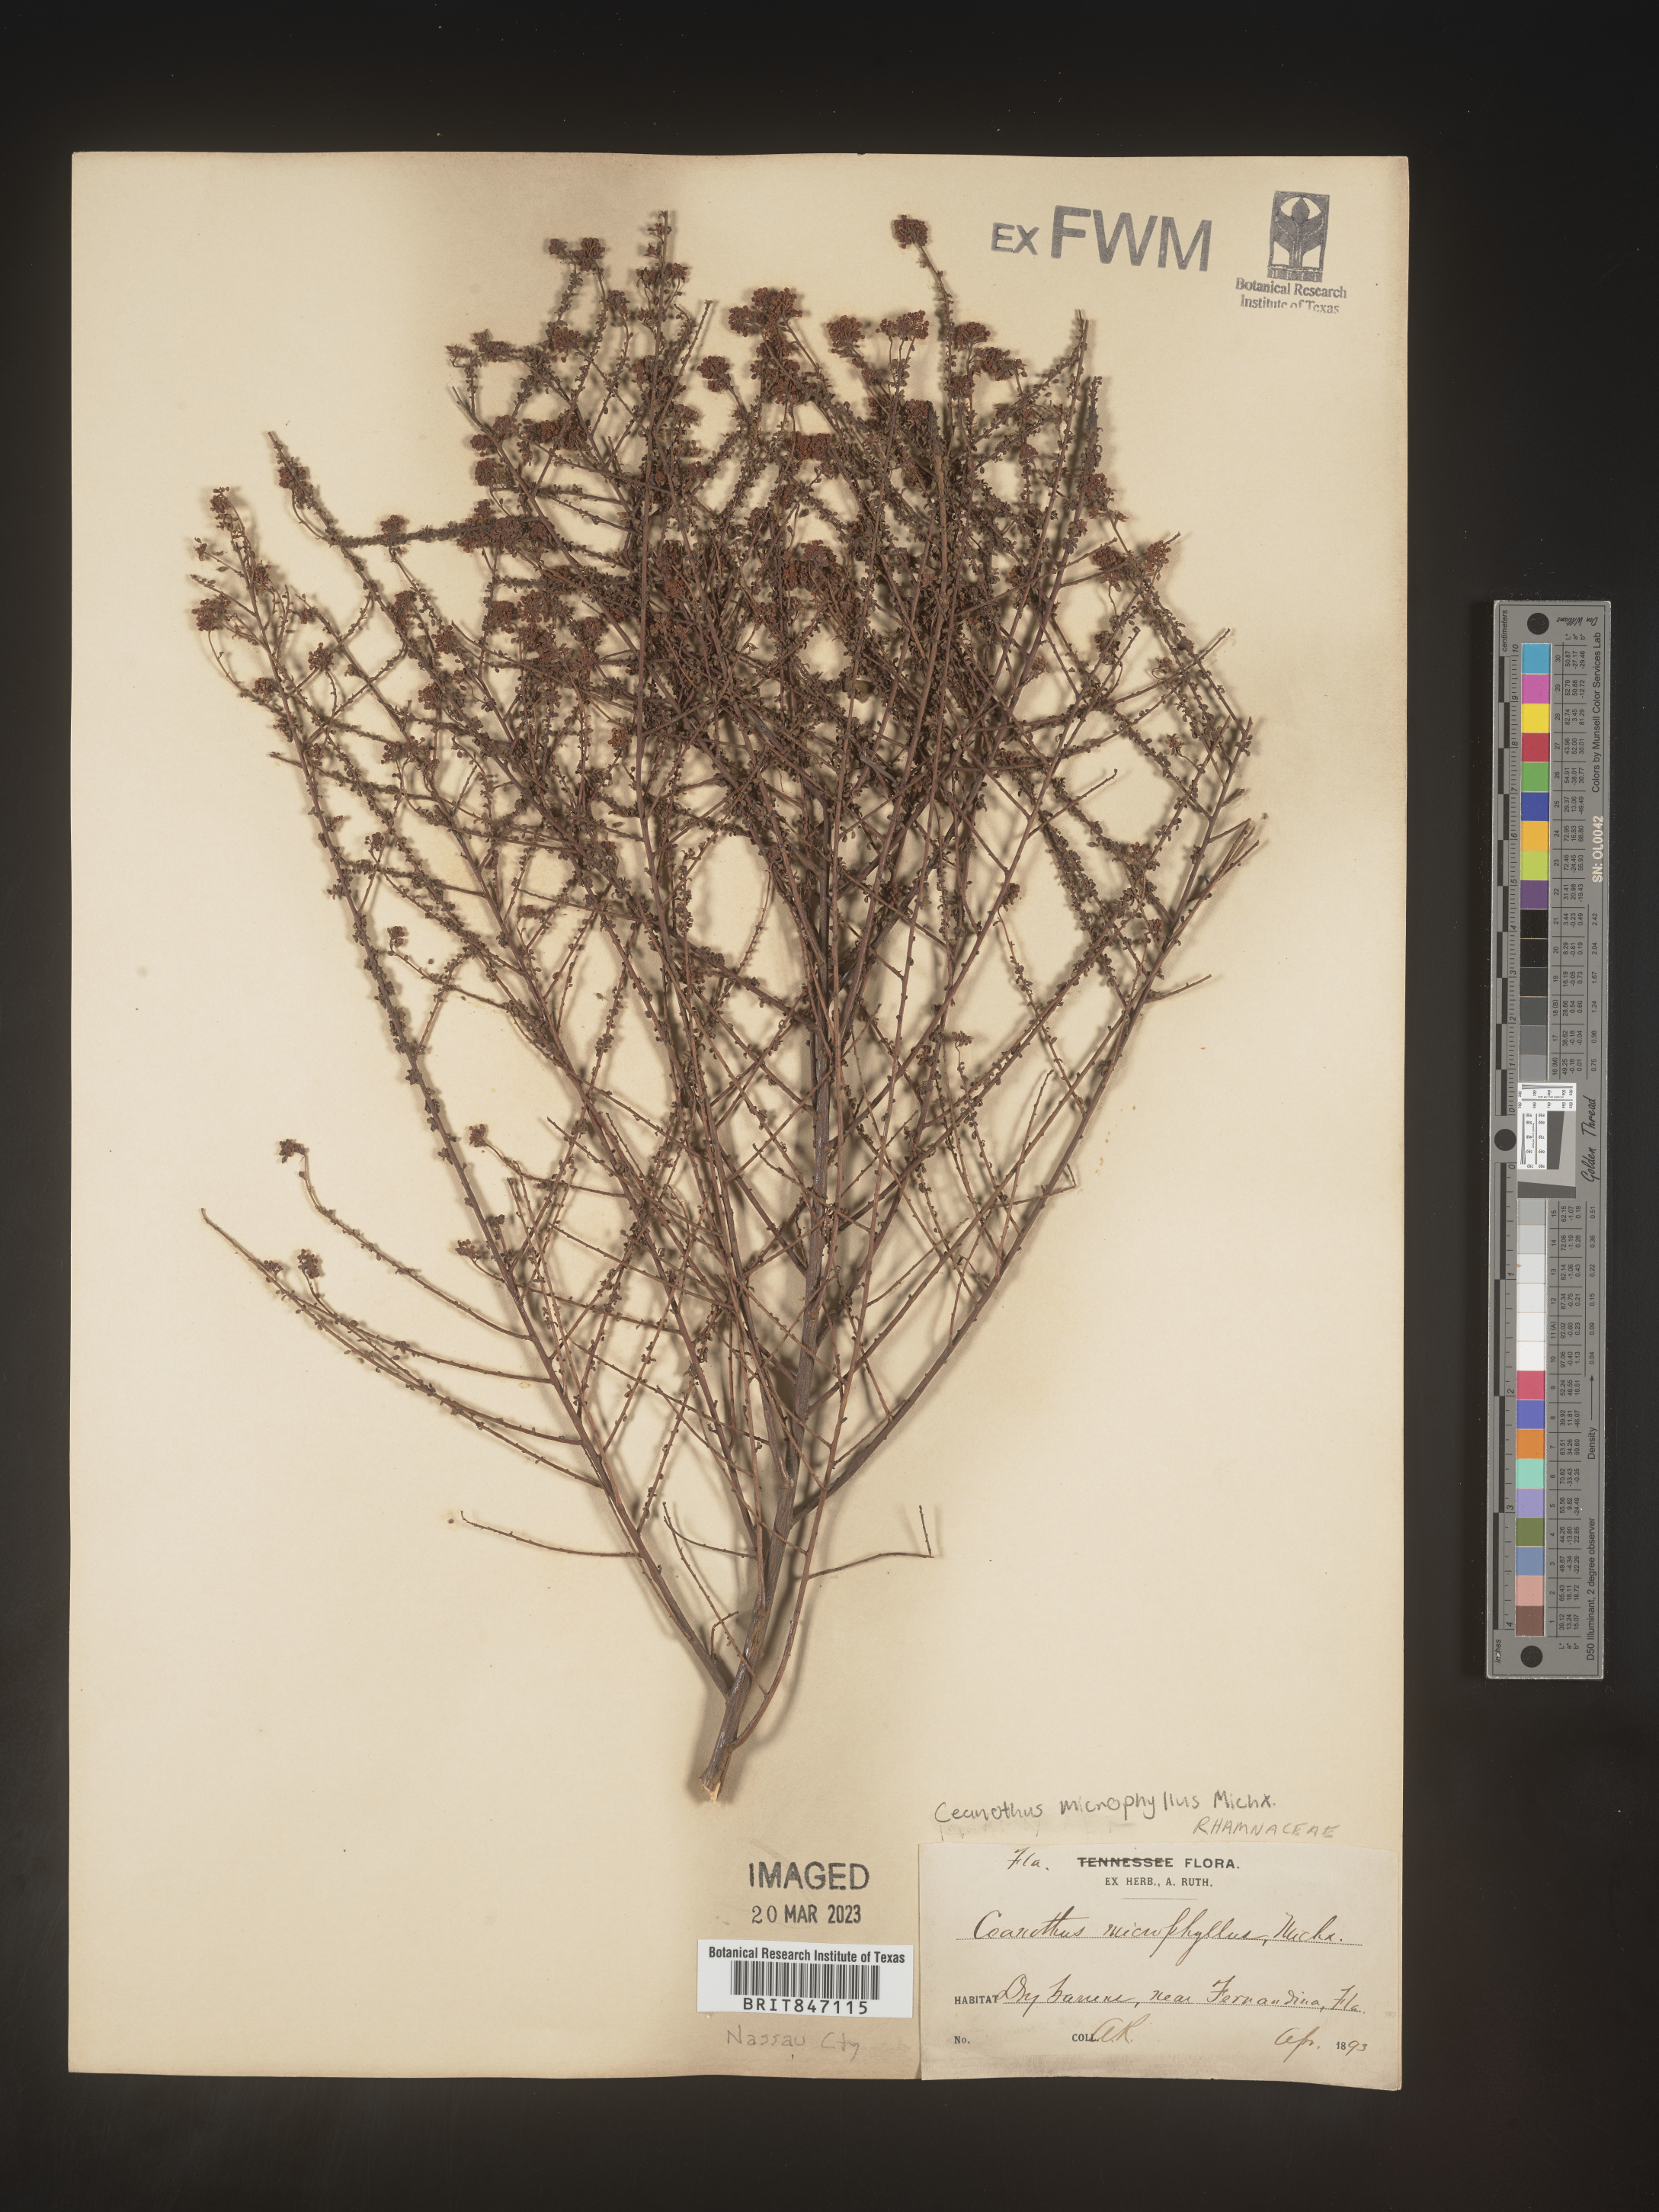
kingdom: Plantae
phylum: Tracheophyta
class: Magnoliopsida
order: Rosales
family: Rhamnaceae
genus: Ceanothus
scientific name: Ceanothus
